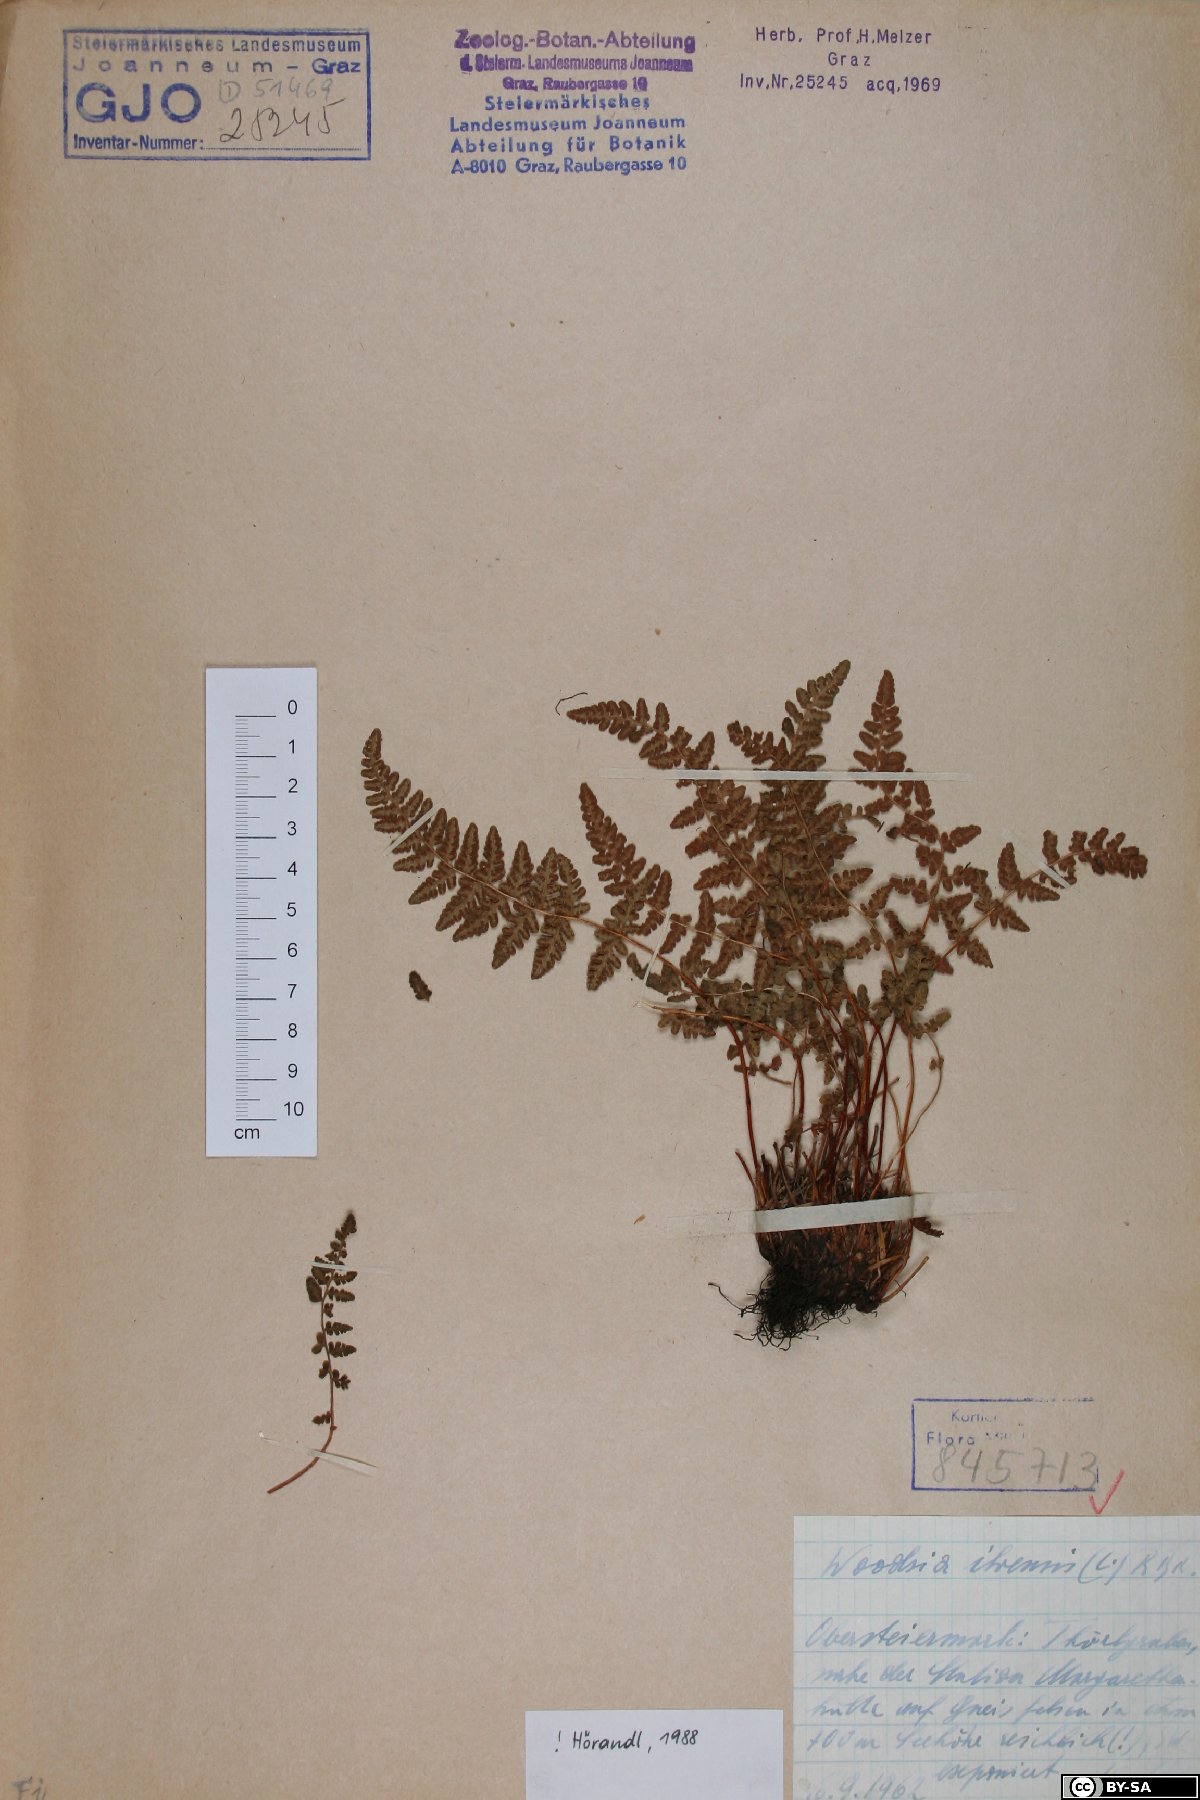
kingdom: Plantae
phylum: Tracheophyta
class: Polypodiopsida
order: Polypodiales
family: Woodsiaceae
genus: Woodsia
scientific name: Woodsia ilvensis
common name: Fragrant woodsia
